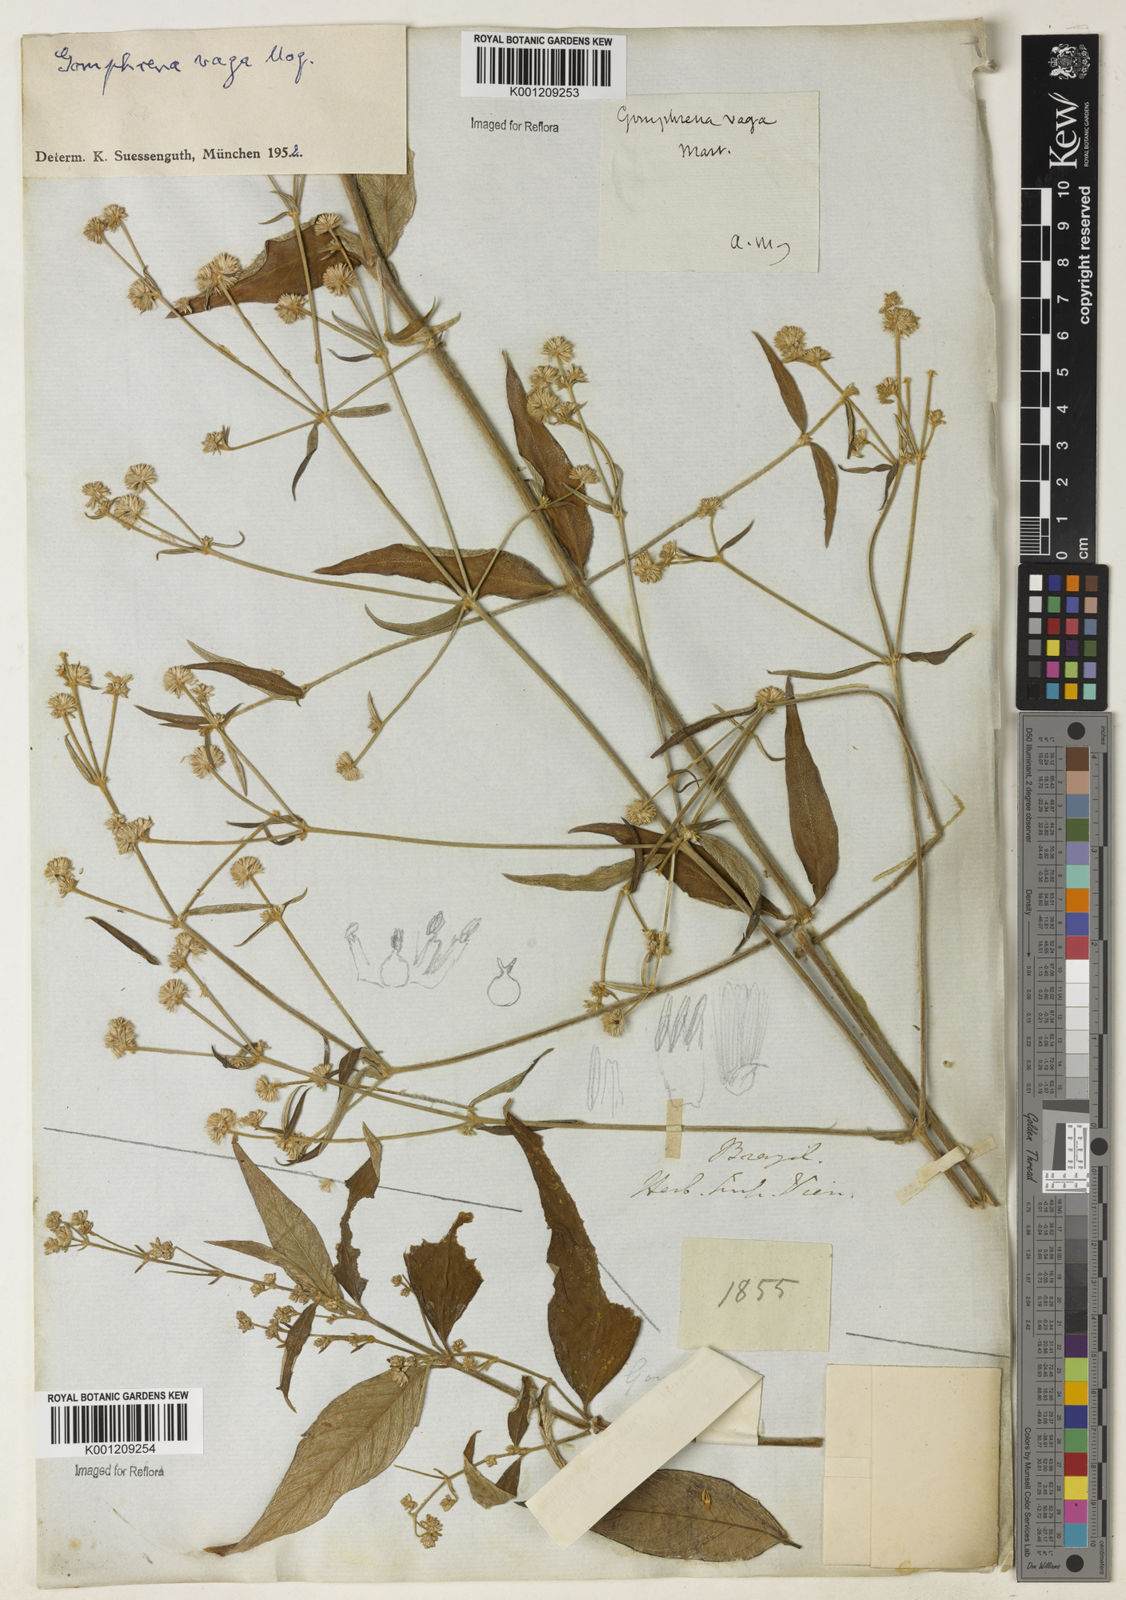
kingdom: Plantae
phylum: Tracheophyta
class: Magnoliopsida
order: Caryophyllales
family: Amaranthaceae
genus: Gomphrena
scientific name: Gomphrena vaga
